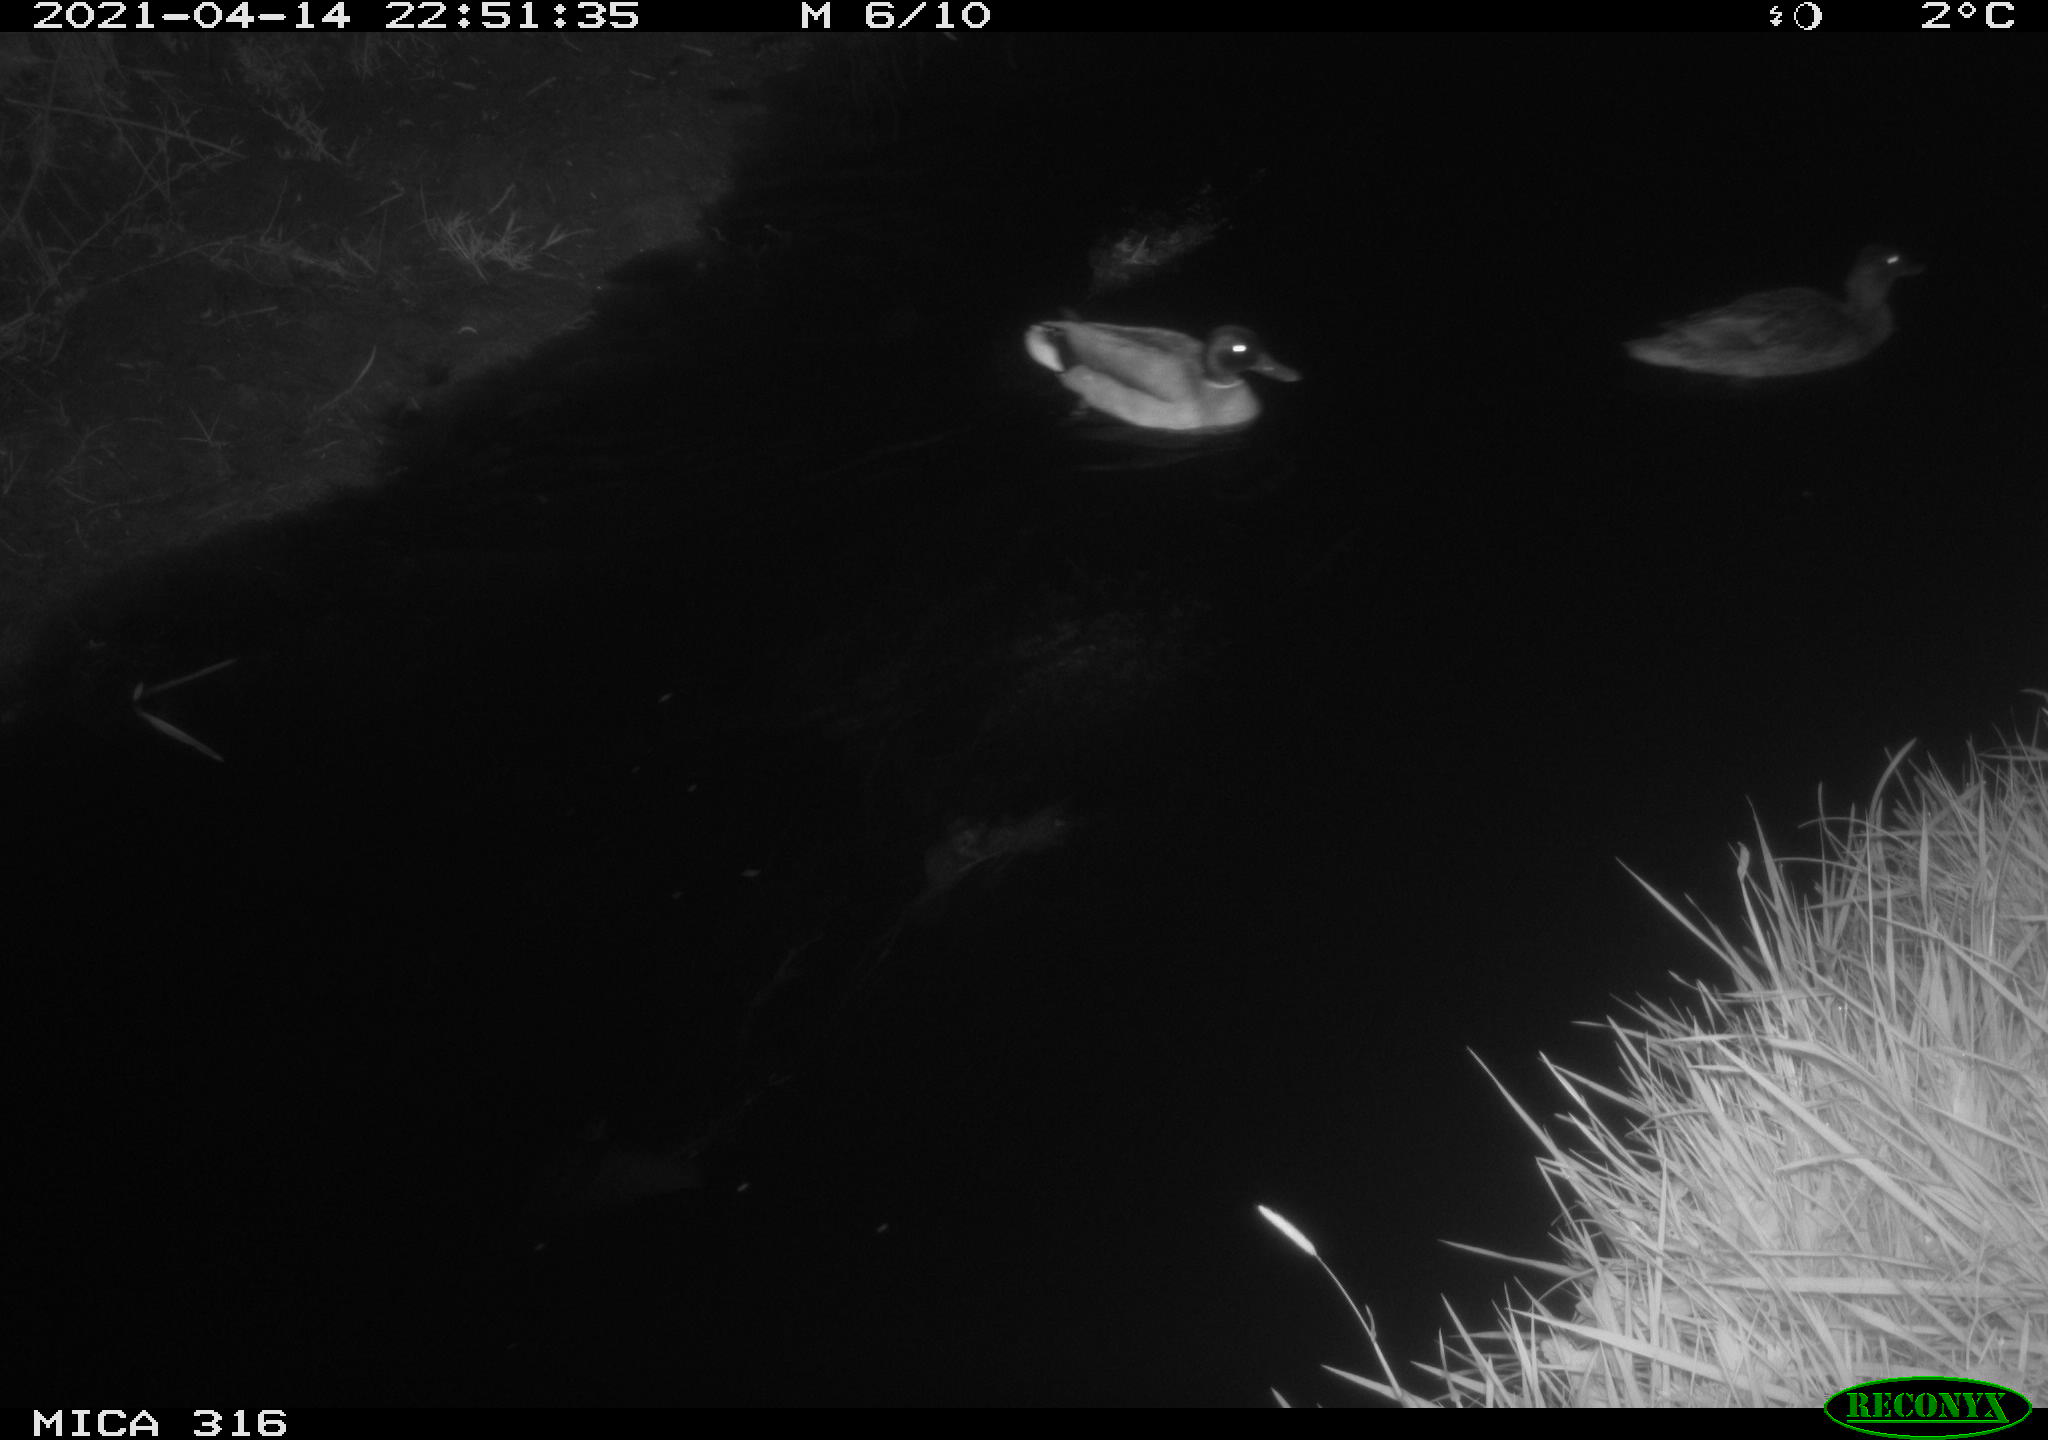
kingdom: Animalia
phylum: Chordata
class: Aves
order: Anseriformes
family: Anatidae
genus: Anas
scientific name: Anas platyrhynchos
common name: Mallard
